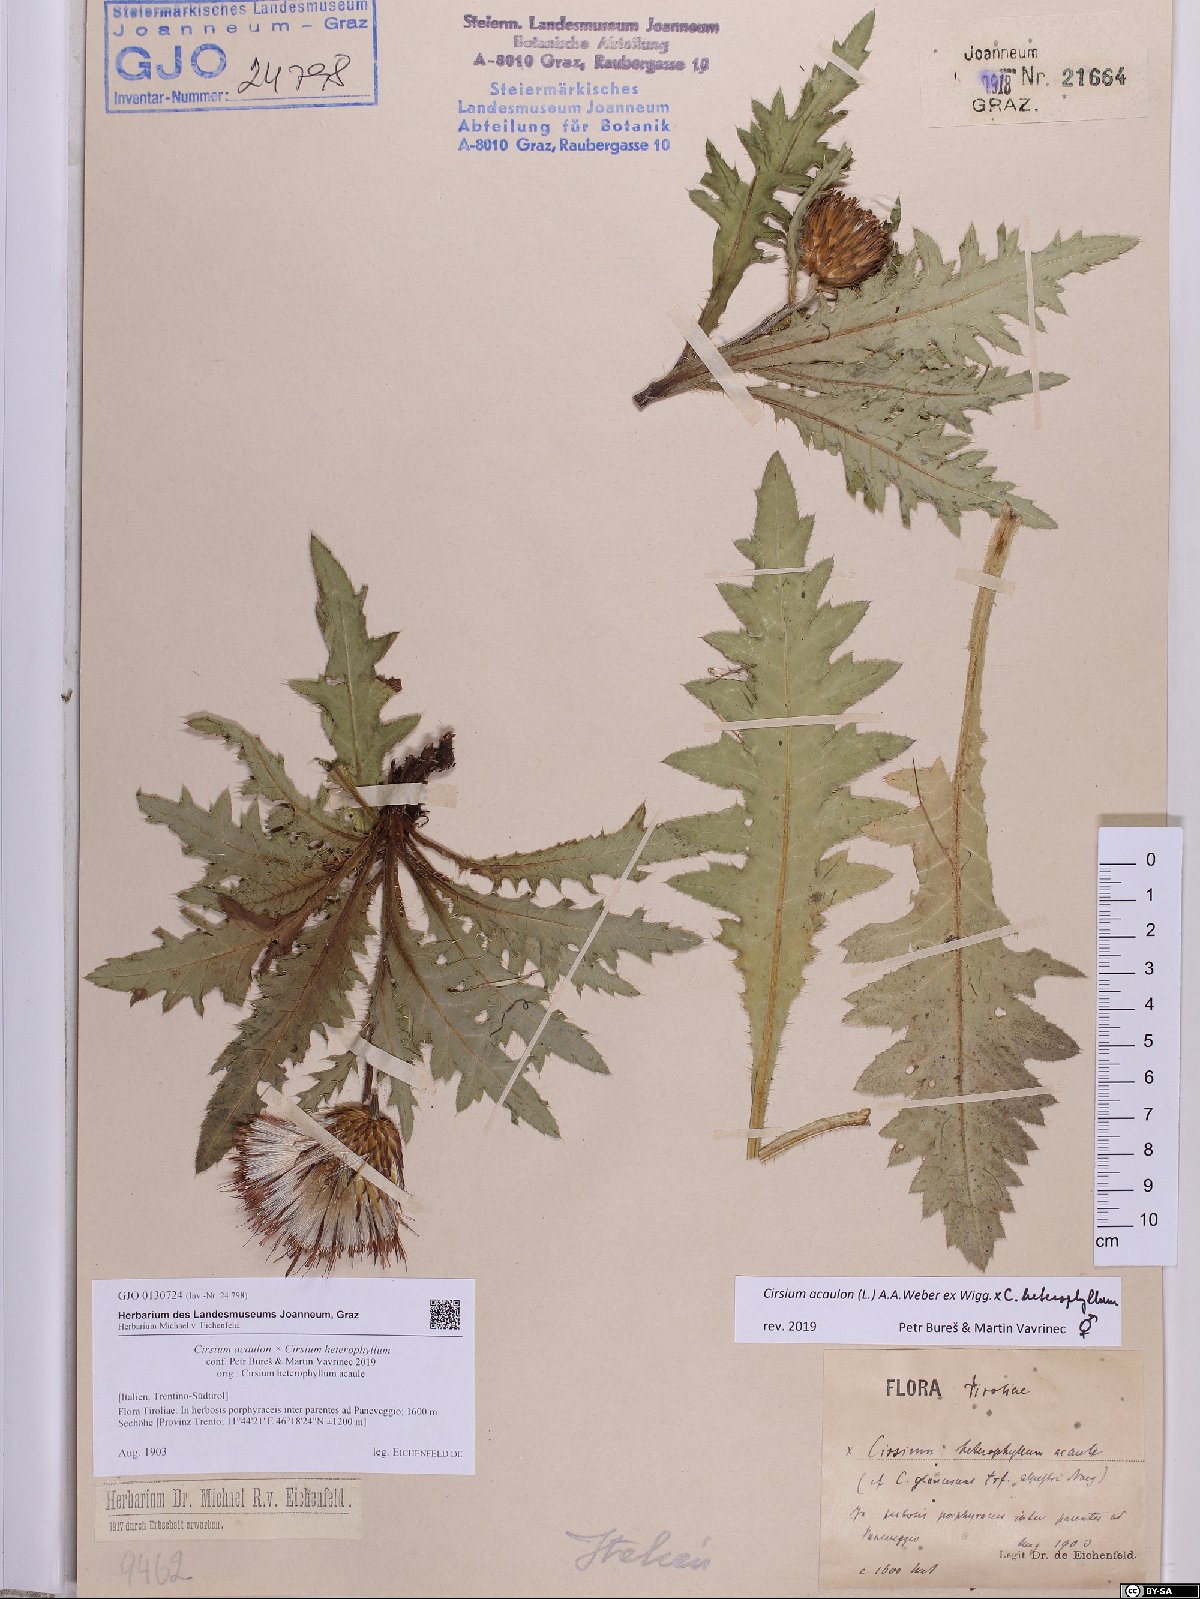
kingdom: Plantae
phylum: Tracheophyta
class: Magnoliopsida
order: Asterales
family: Asteraceae
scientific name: Asteraceae
